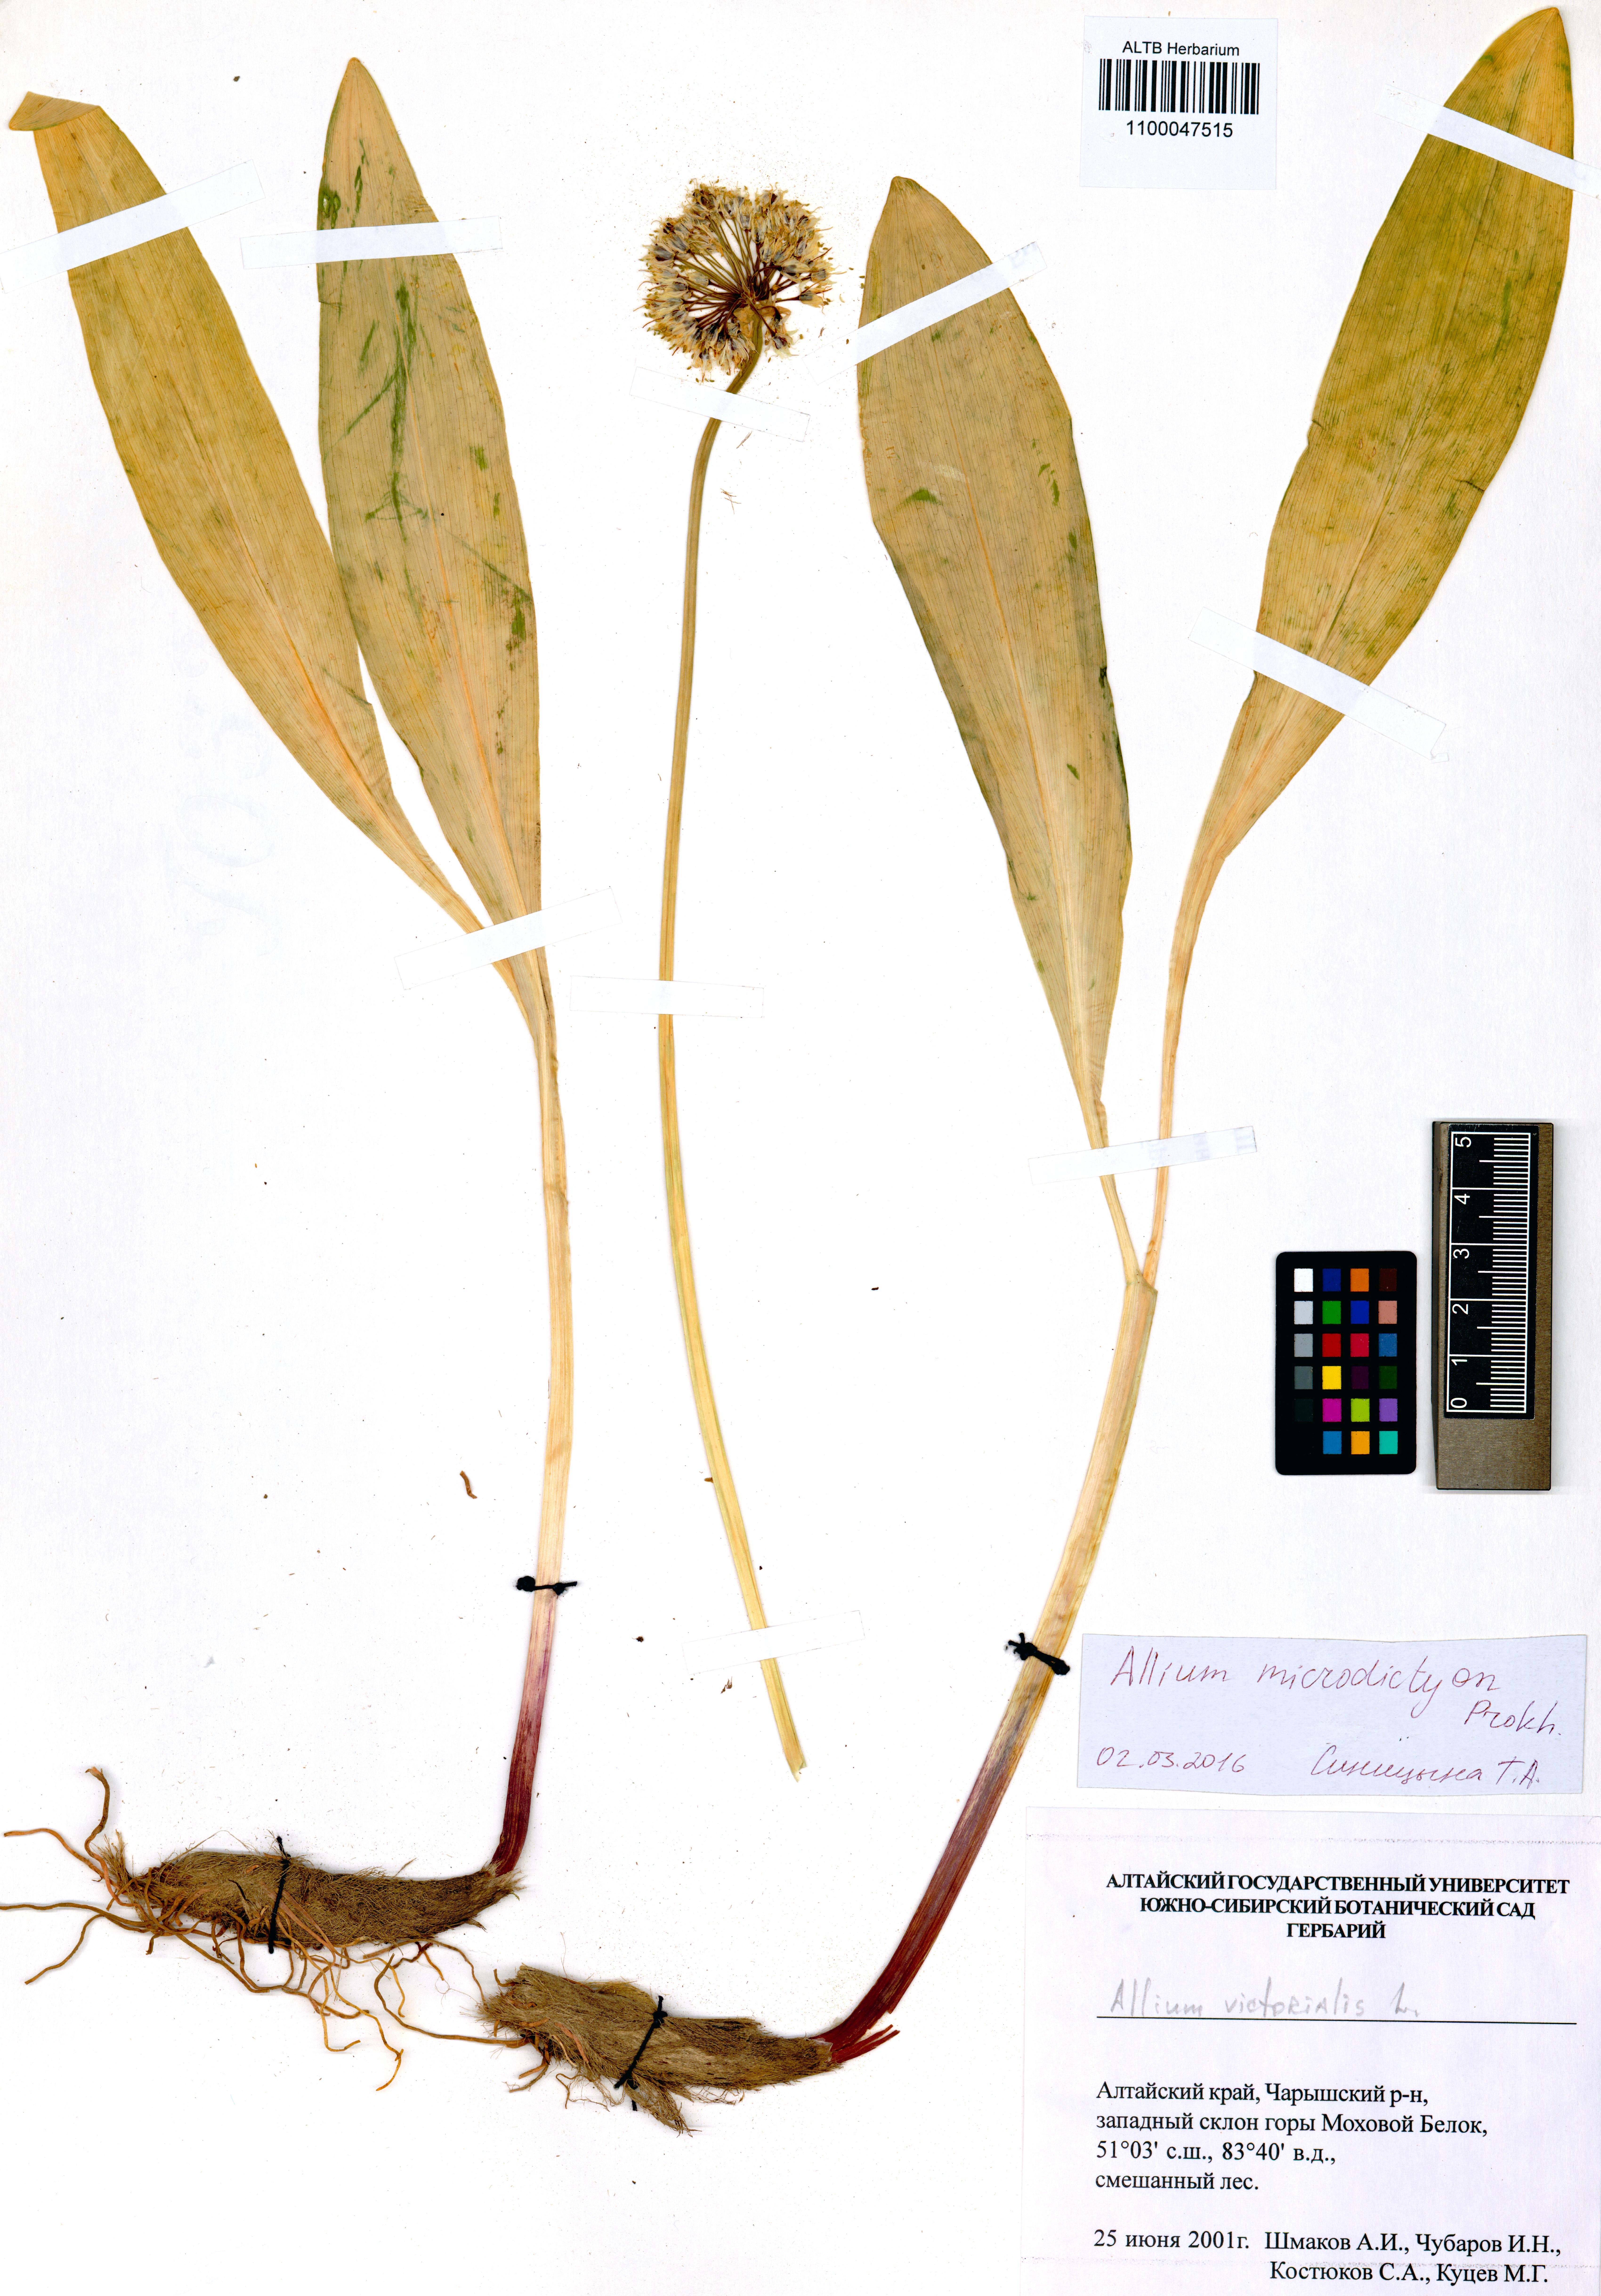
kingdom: Plantae
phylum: Tracheophyta
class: Liliopsida
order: Asparagales
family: Amaryllidaceae
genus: Allium
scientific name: Allium microdictyon
